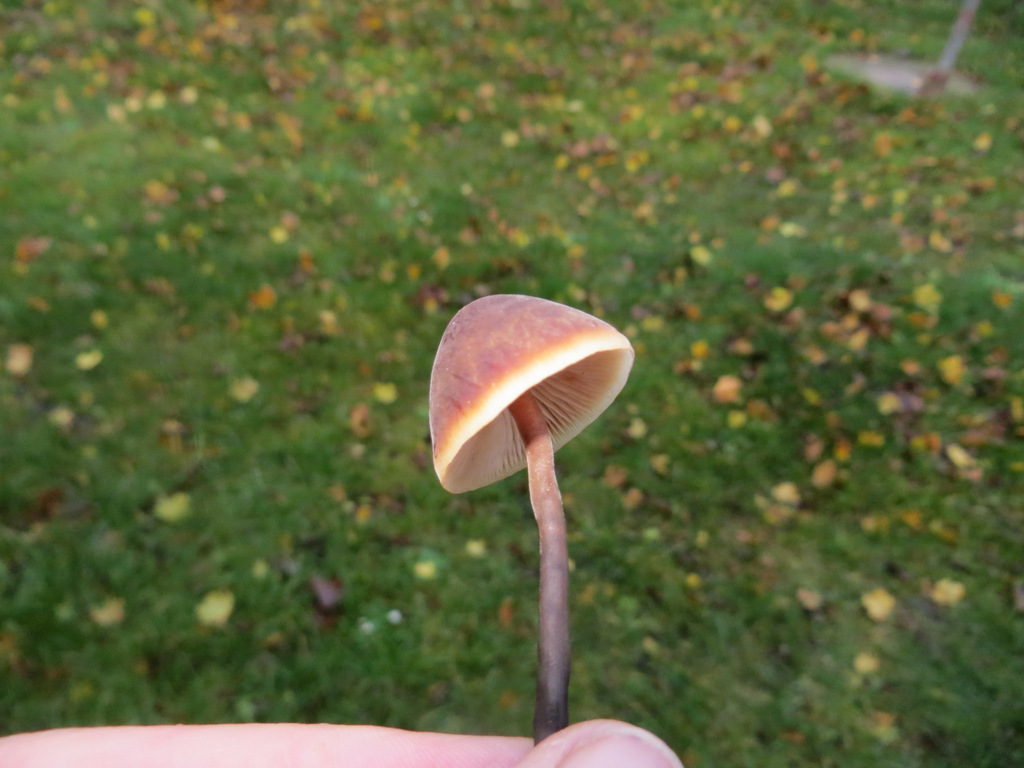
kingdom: Fungi
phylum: Basidiomycota
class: Agaricomycetes
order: Agaricales
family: Macrocystidiaceae
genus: Macrocystidia
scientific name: Macrocystidia cucumis
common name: agurkehat
